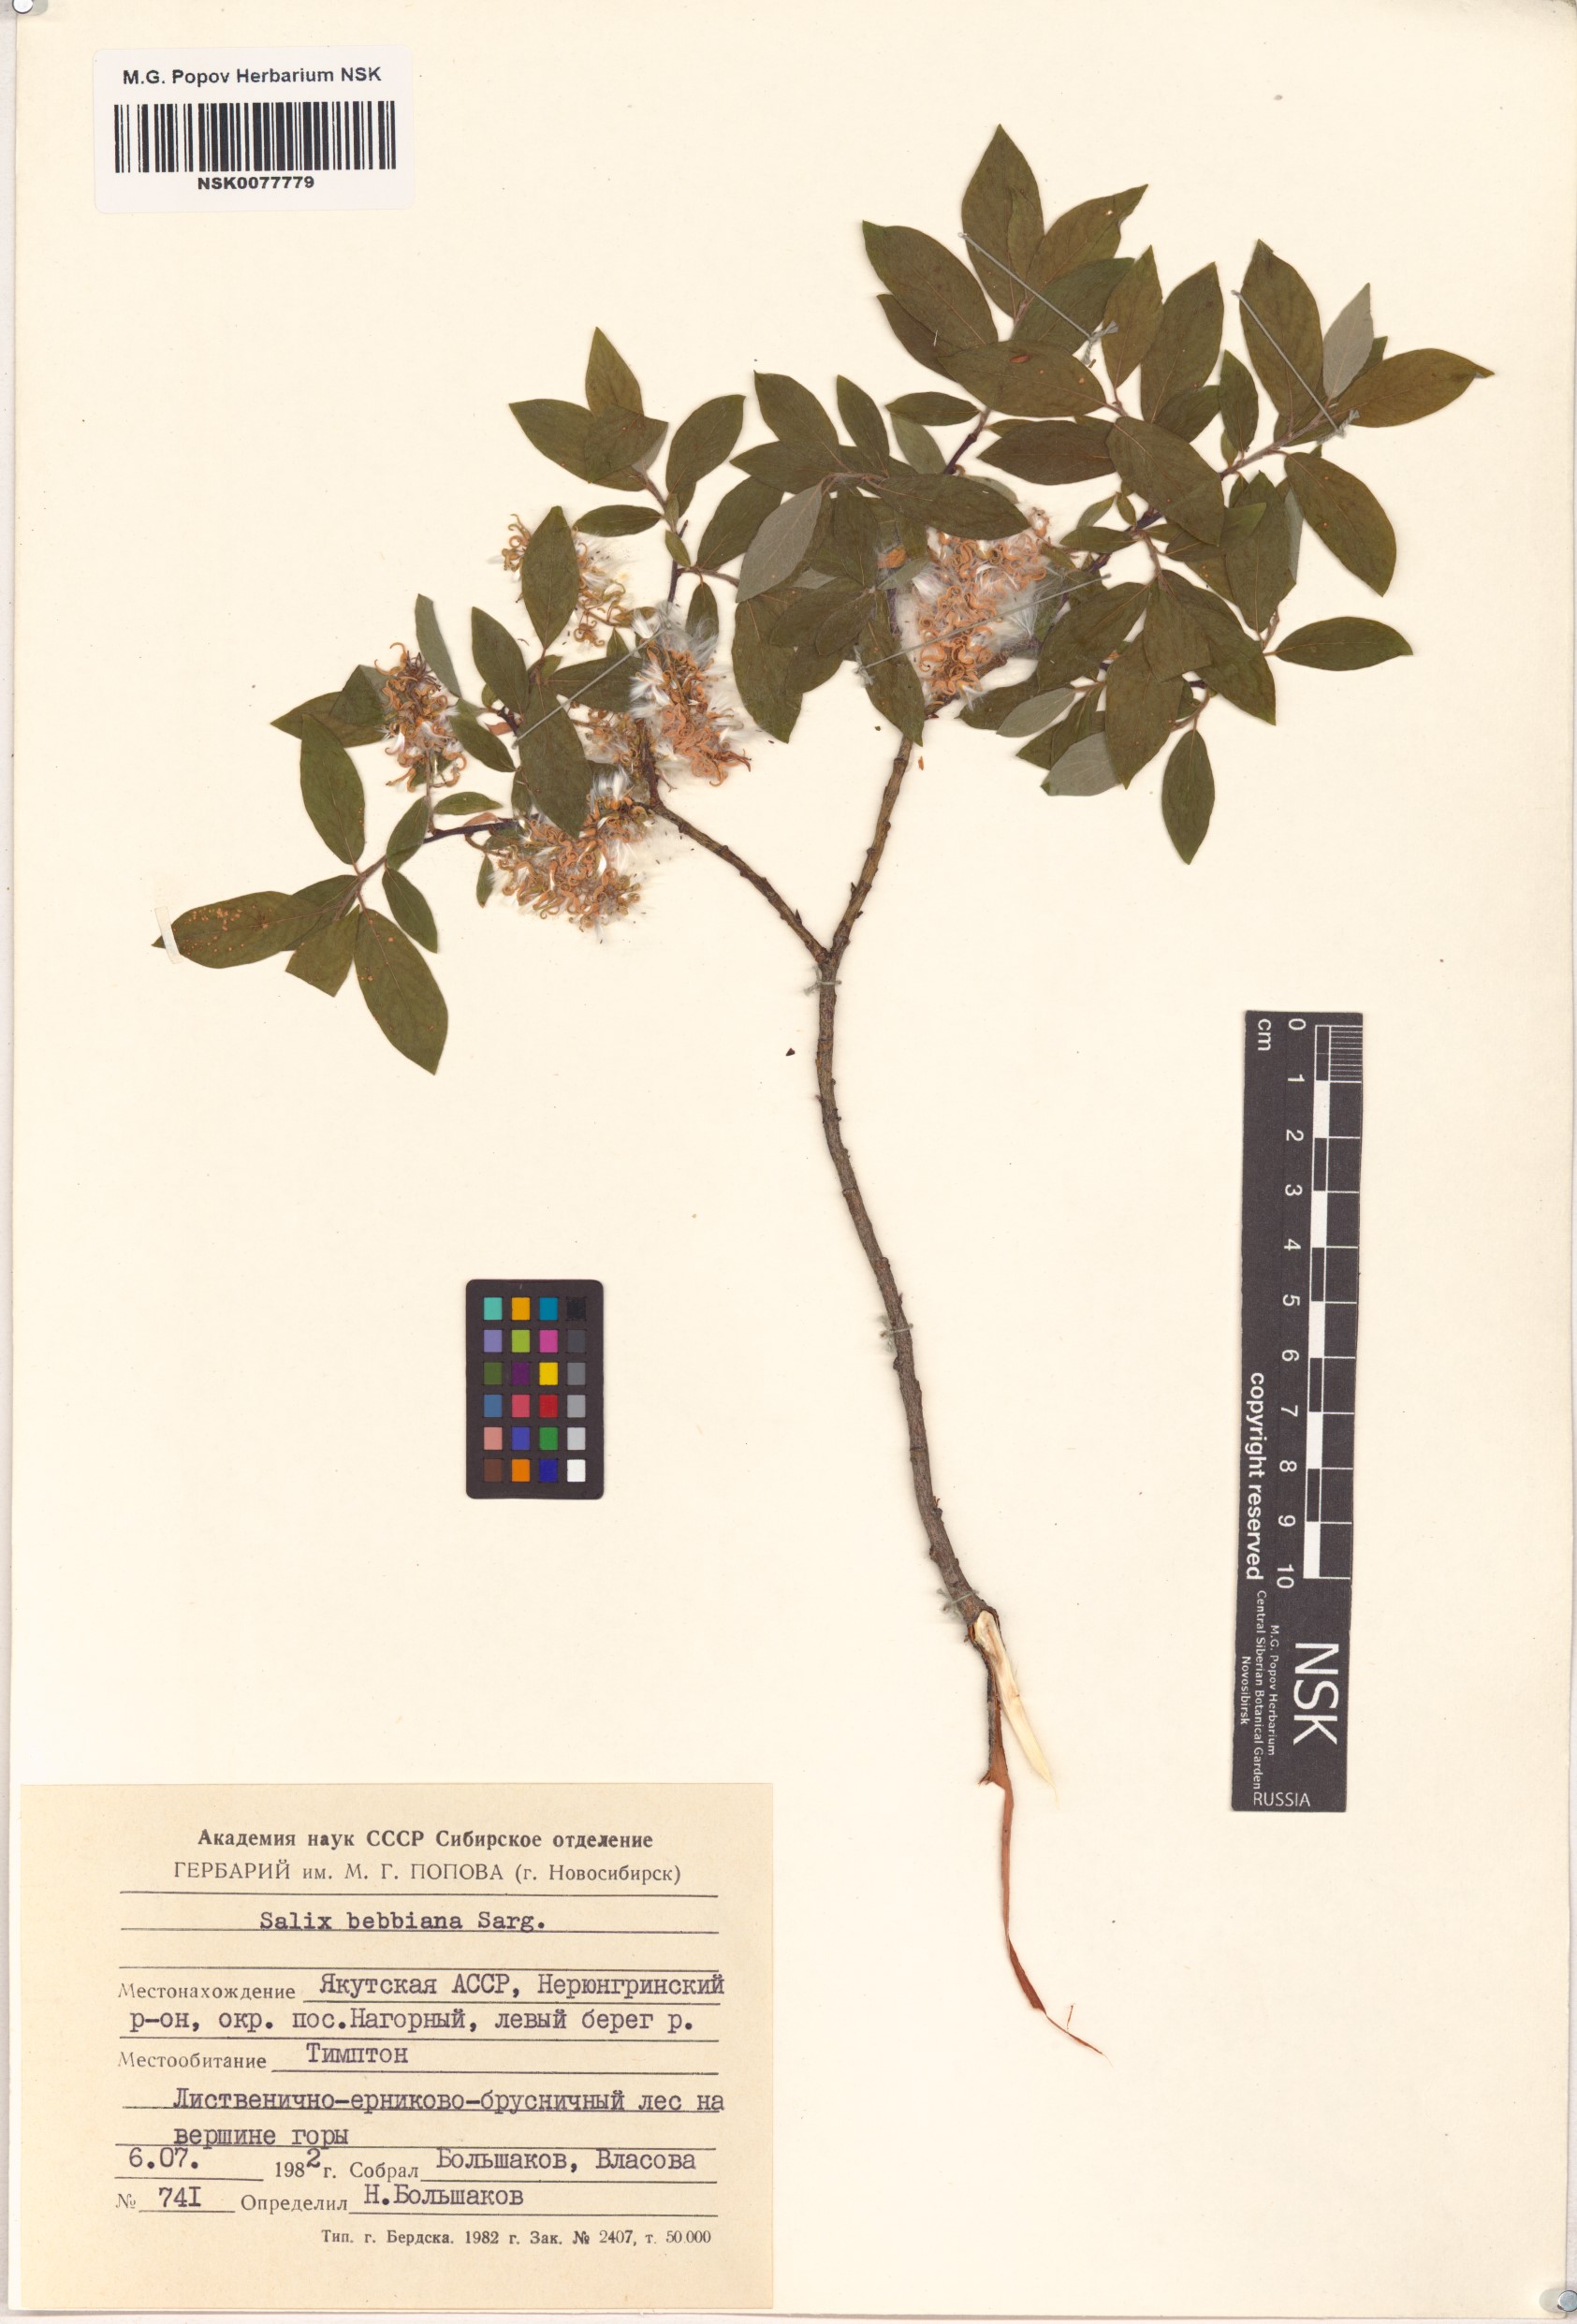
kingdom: Plantae
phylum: Tracheophyta
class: Magnoliopsida
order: Malpighiales
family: Salicaceae
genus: Salix
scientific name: Salix bebbiana
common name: Bebb's willow
